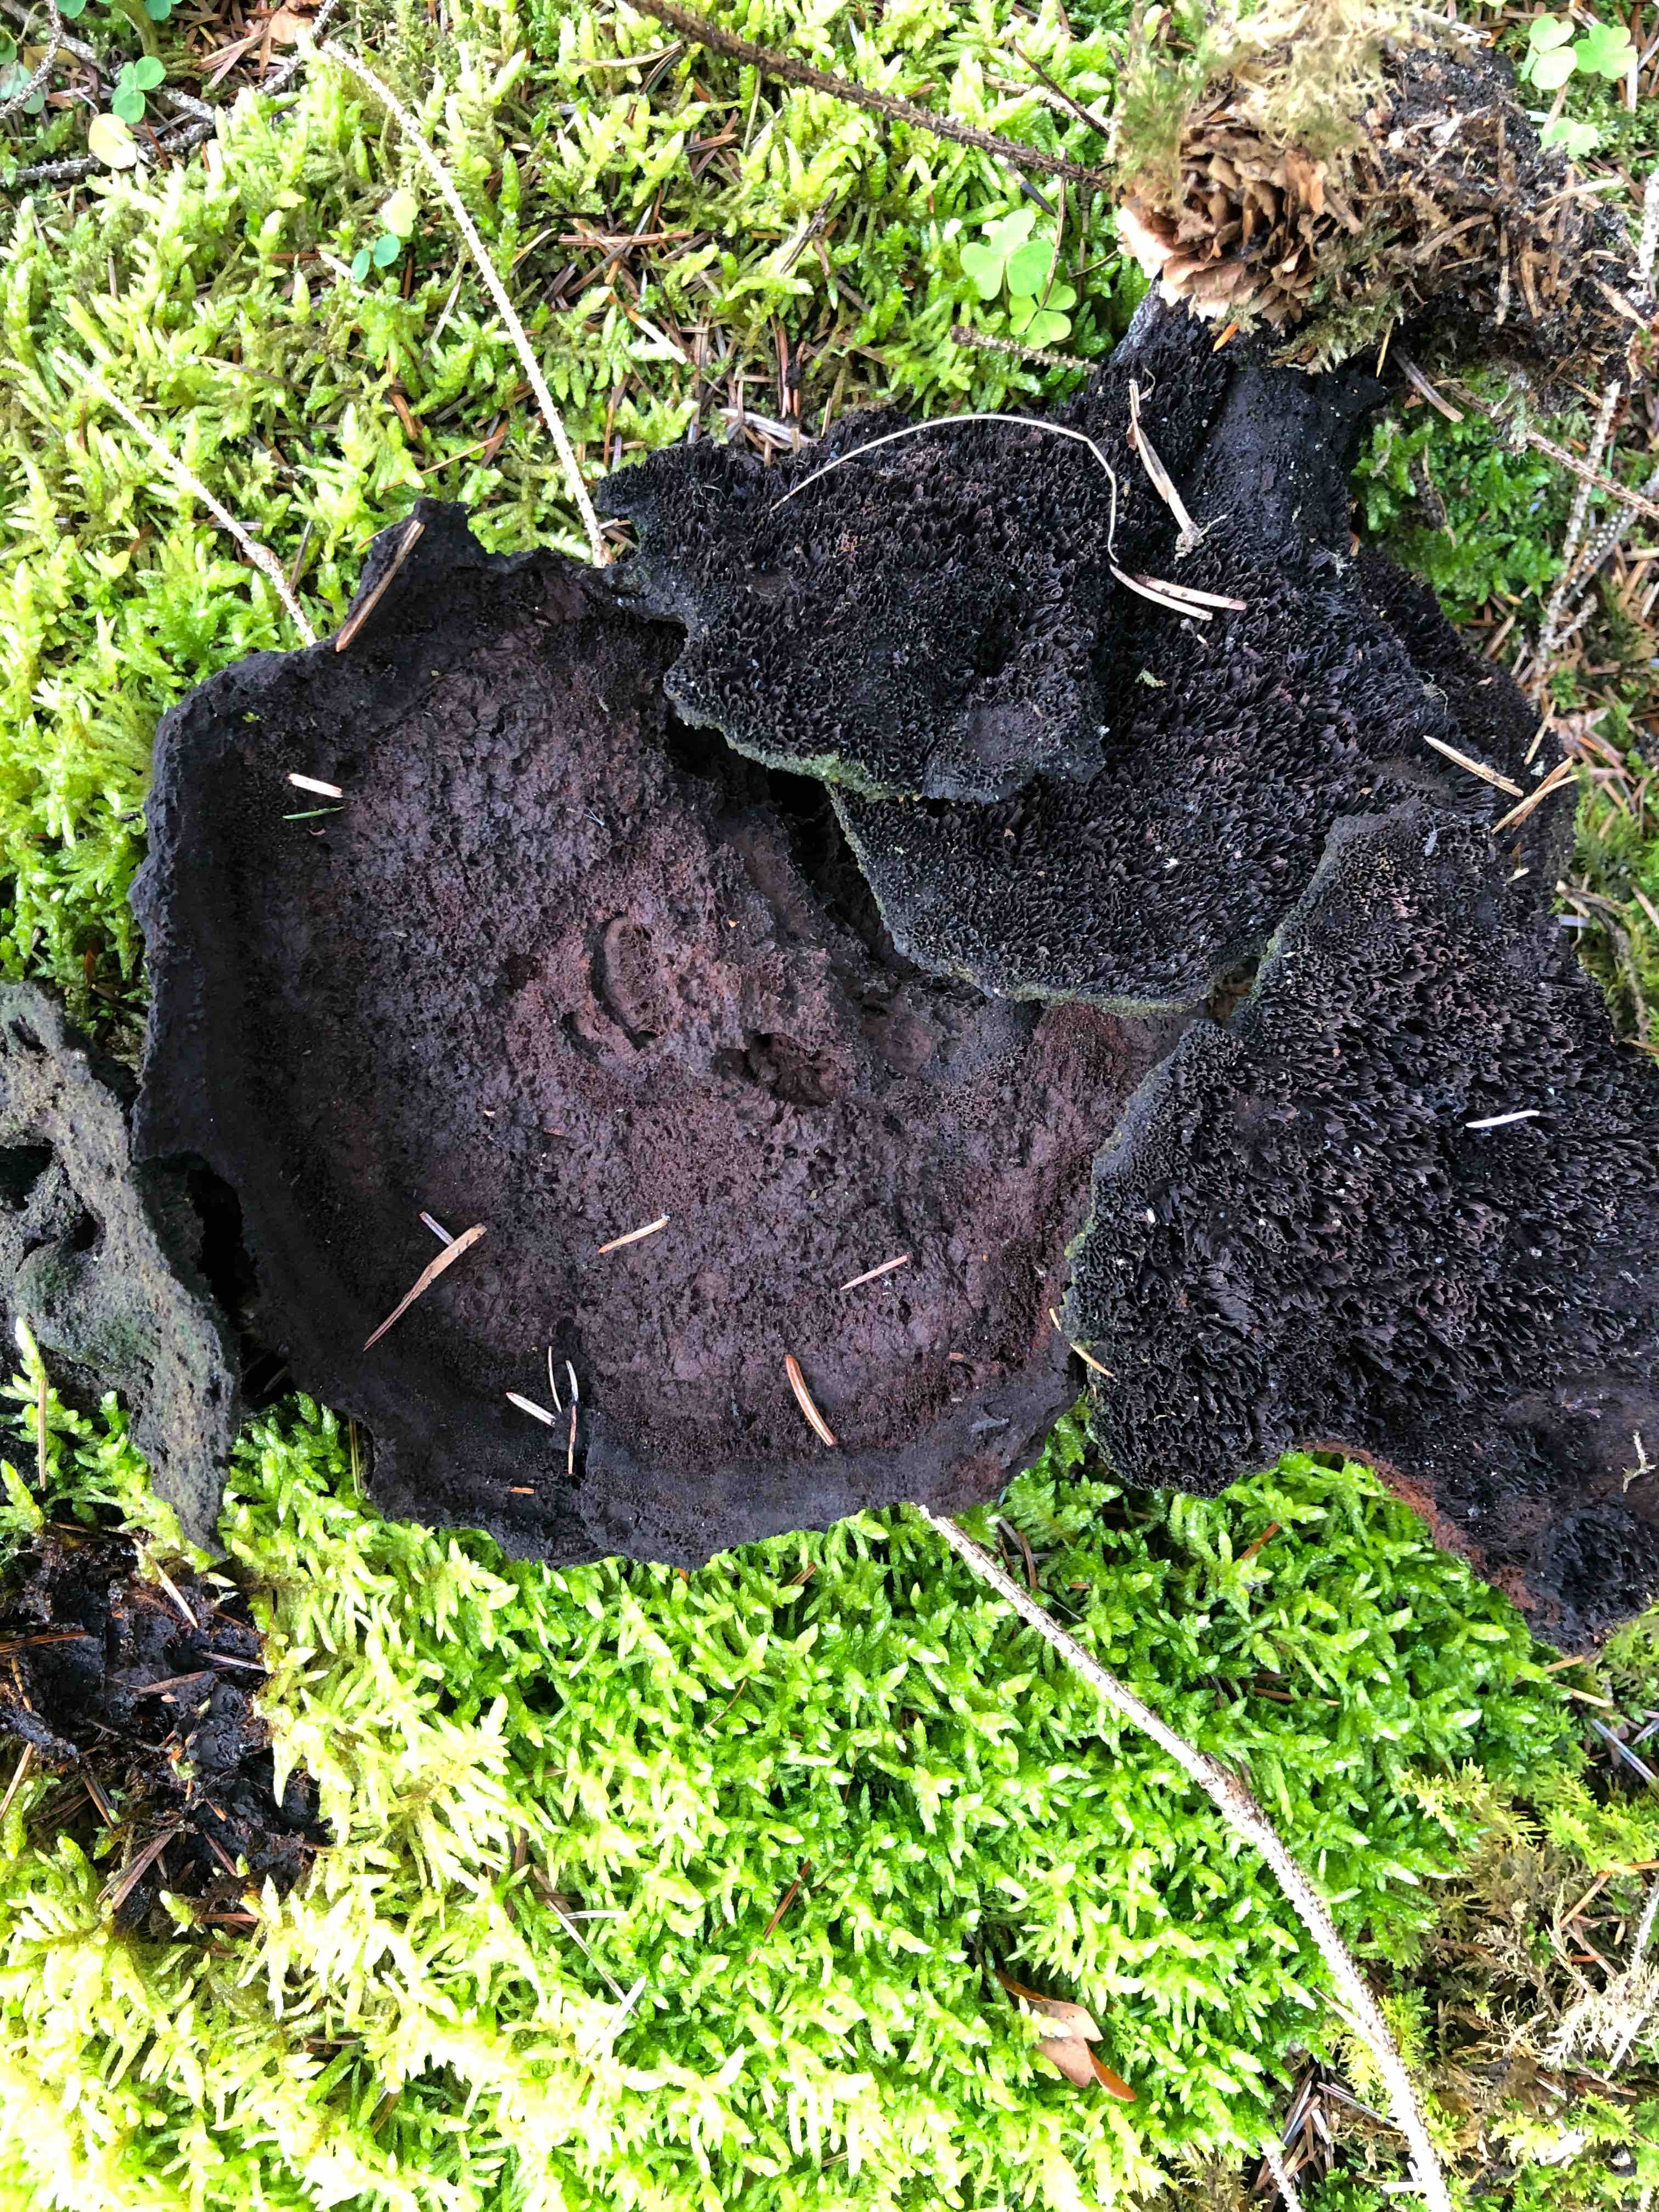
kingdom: Fungi
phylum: Basidiomycota
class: Agaricomycetes
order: Polyporales
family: Laetiporaceae
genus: Phaeolus
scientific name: Phaeolus schweinitzii
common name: brunporesvamp
